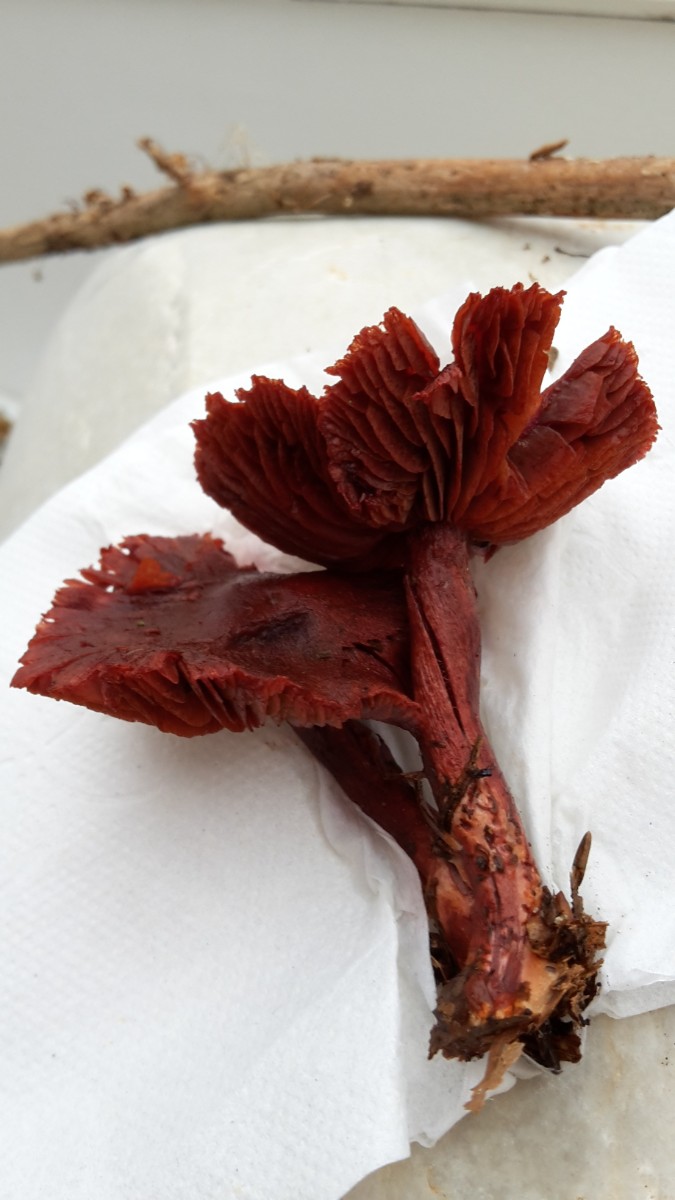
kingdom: Fungi
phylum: Basidiomycota
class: Agaricomycetes
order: Agaricales
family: Cortinariaceae
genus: Cortinarius
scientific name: Cortinarius sanguineus
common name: Bloodred webcap
